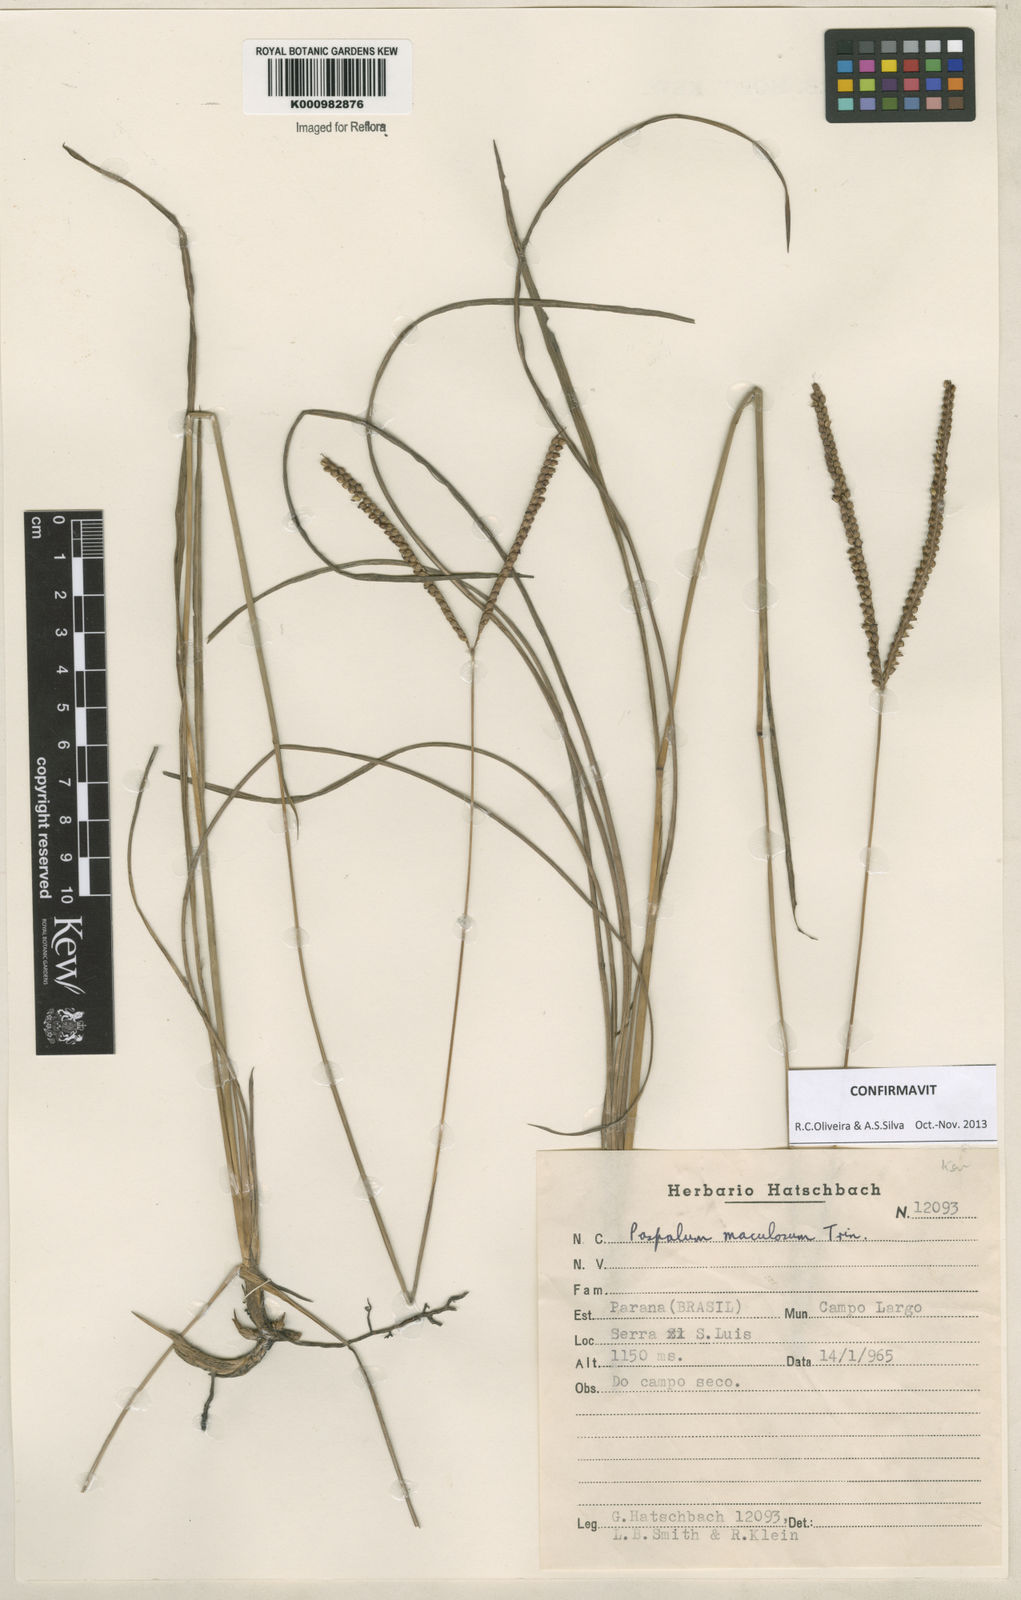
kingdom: Plantae
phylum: Tracheophyta
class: Liliopsida
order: Poales
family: Poaceae
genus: Paspalum
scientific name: Paspalum maculosum
